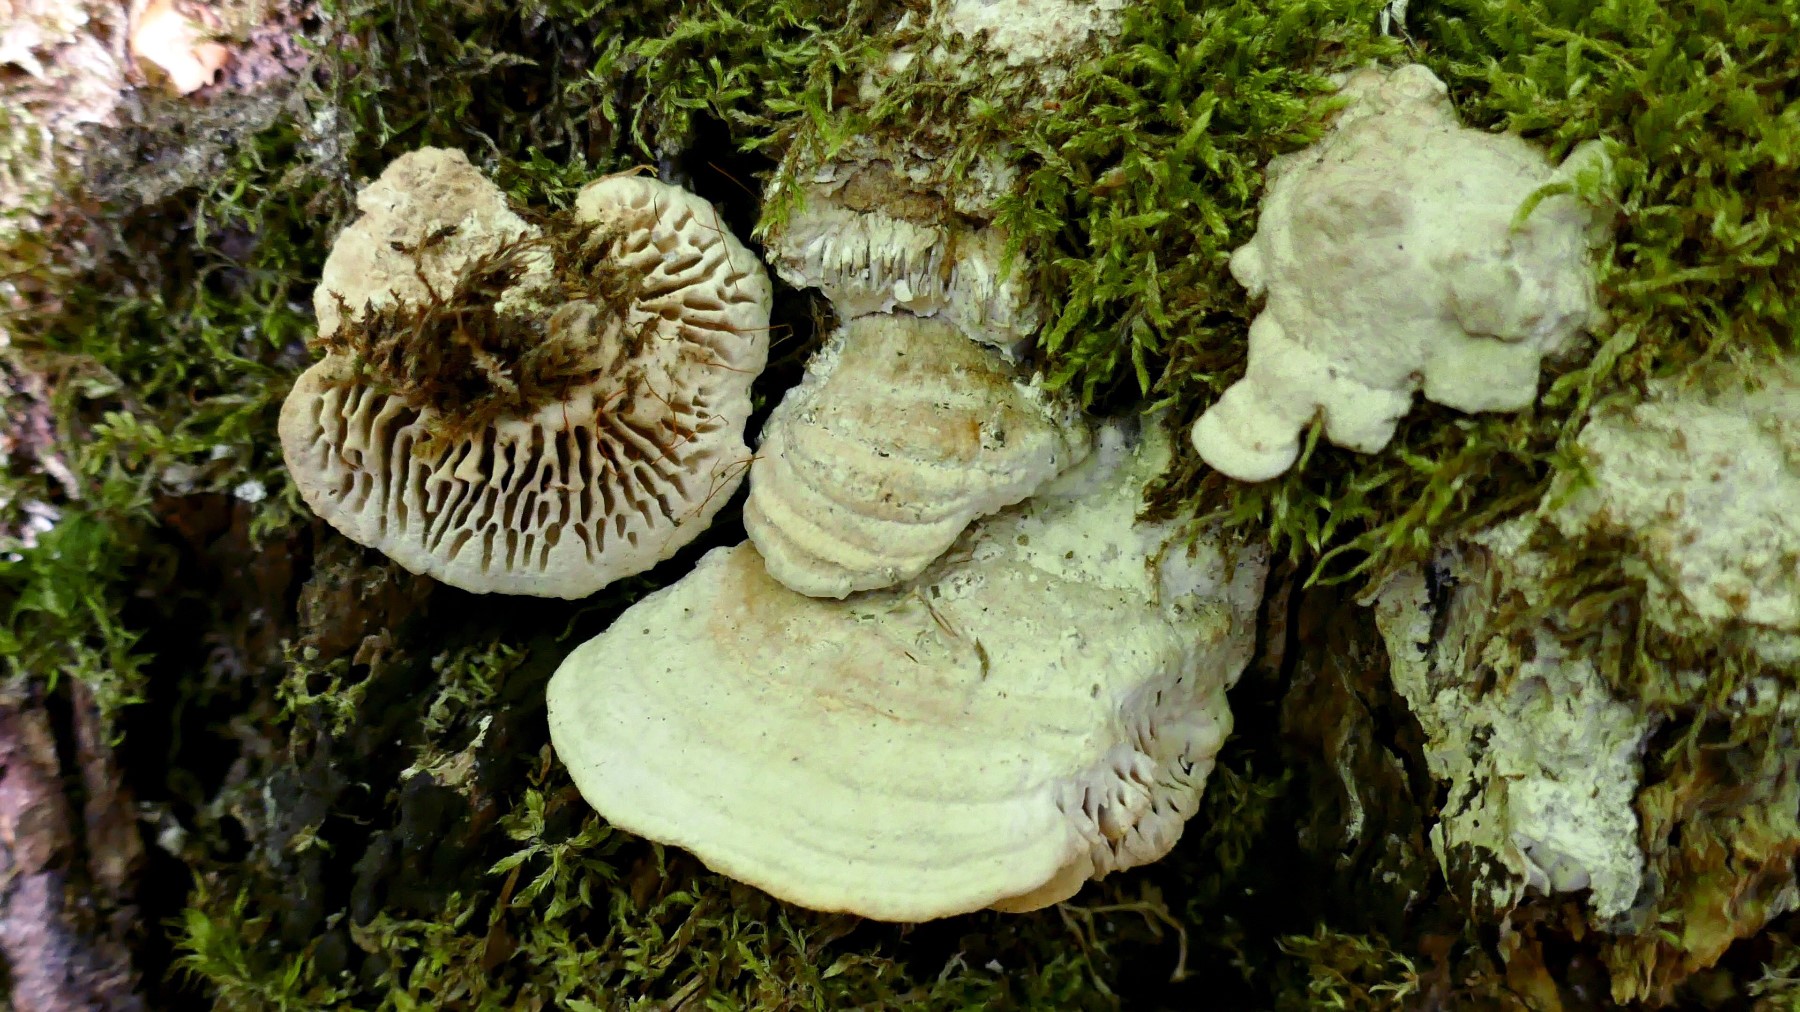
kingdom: Fungi
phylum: Basidiomycota
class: Agaricomycetes
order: Polyporales
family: Fomitopsidaceae
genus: Daedalea
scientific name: Daedalea quercina
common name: ege-labyrintsvamp
